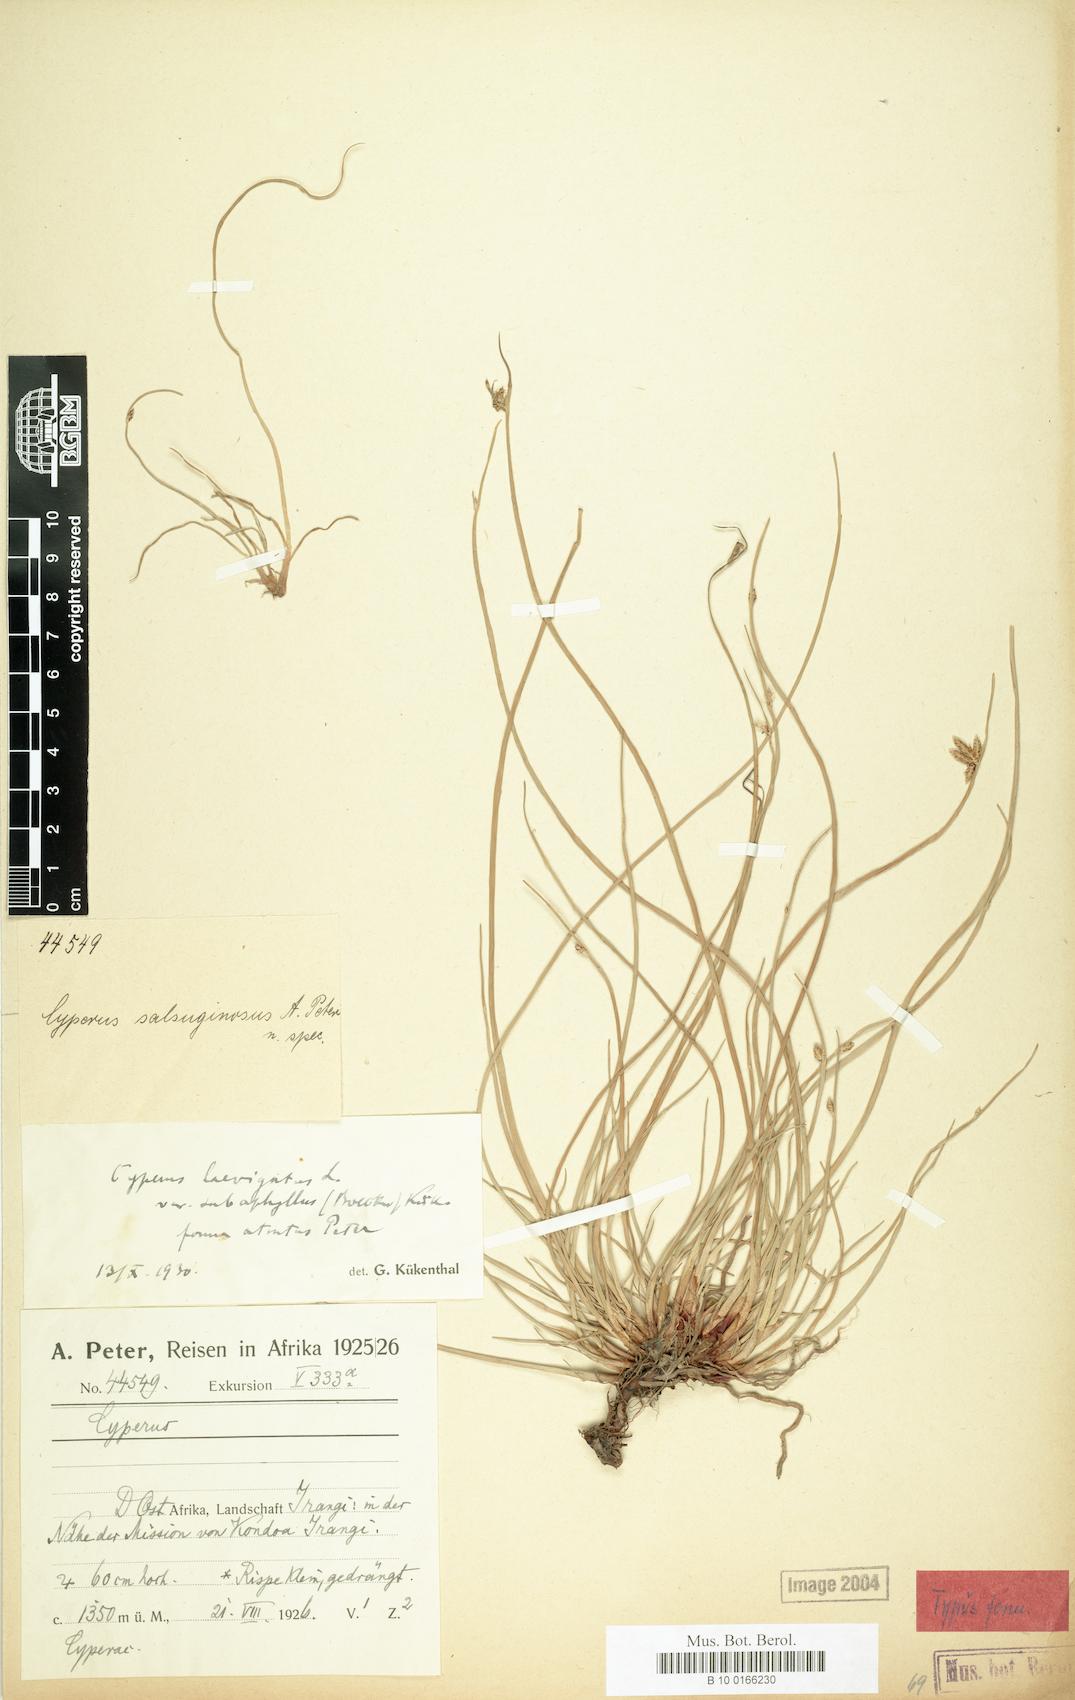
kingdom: Plantae
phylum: Tracheophyta
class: Liliopsida
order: Poales
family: Cyperaceae
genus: Cyperus
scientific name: Cyperus laevigatus
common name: Smooth flat sedge
